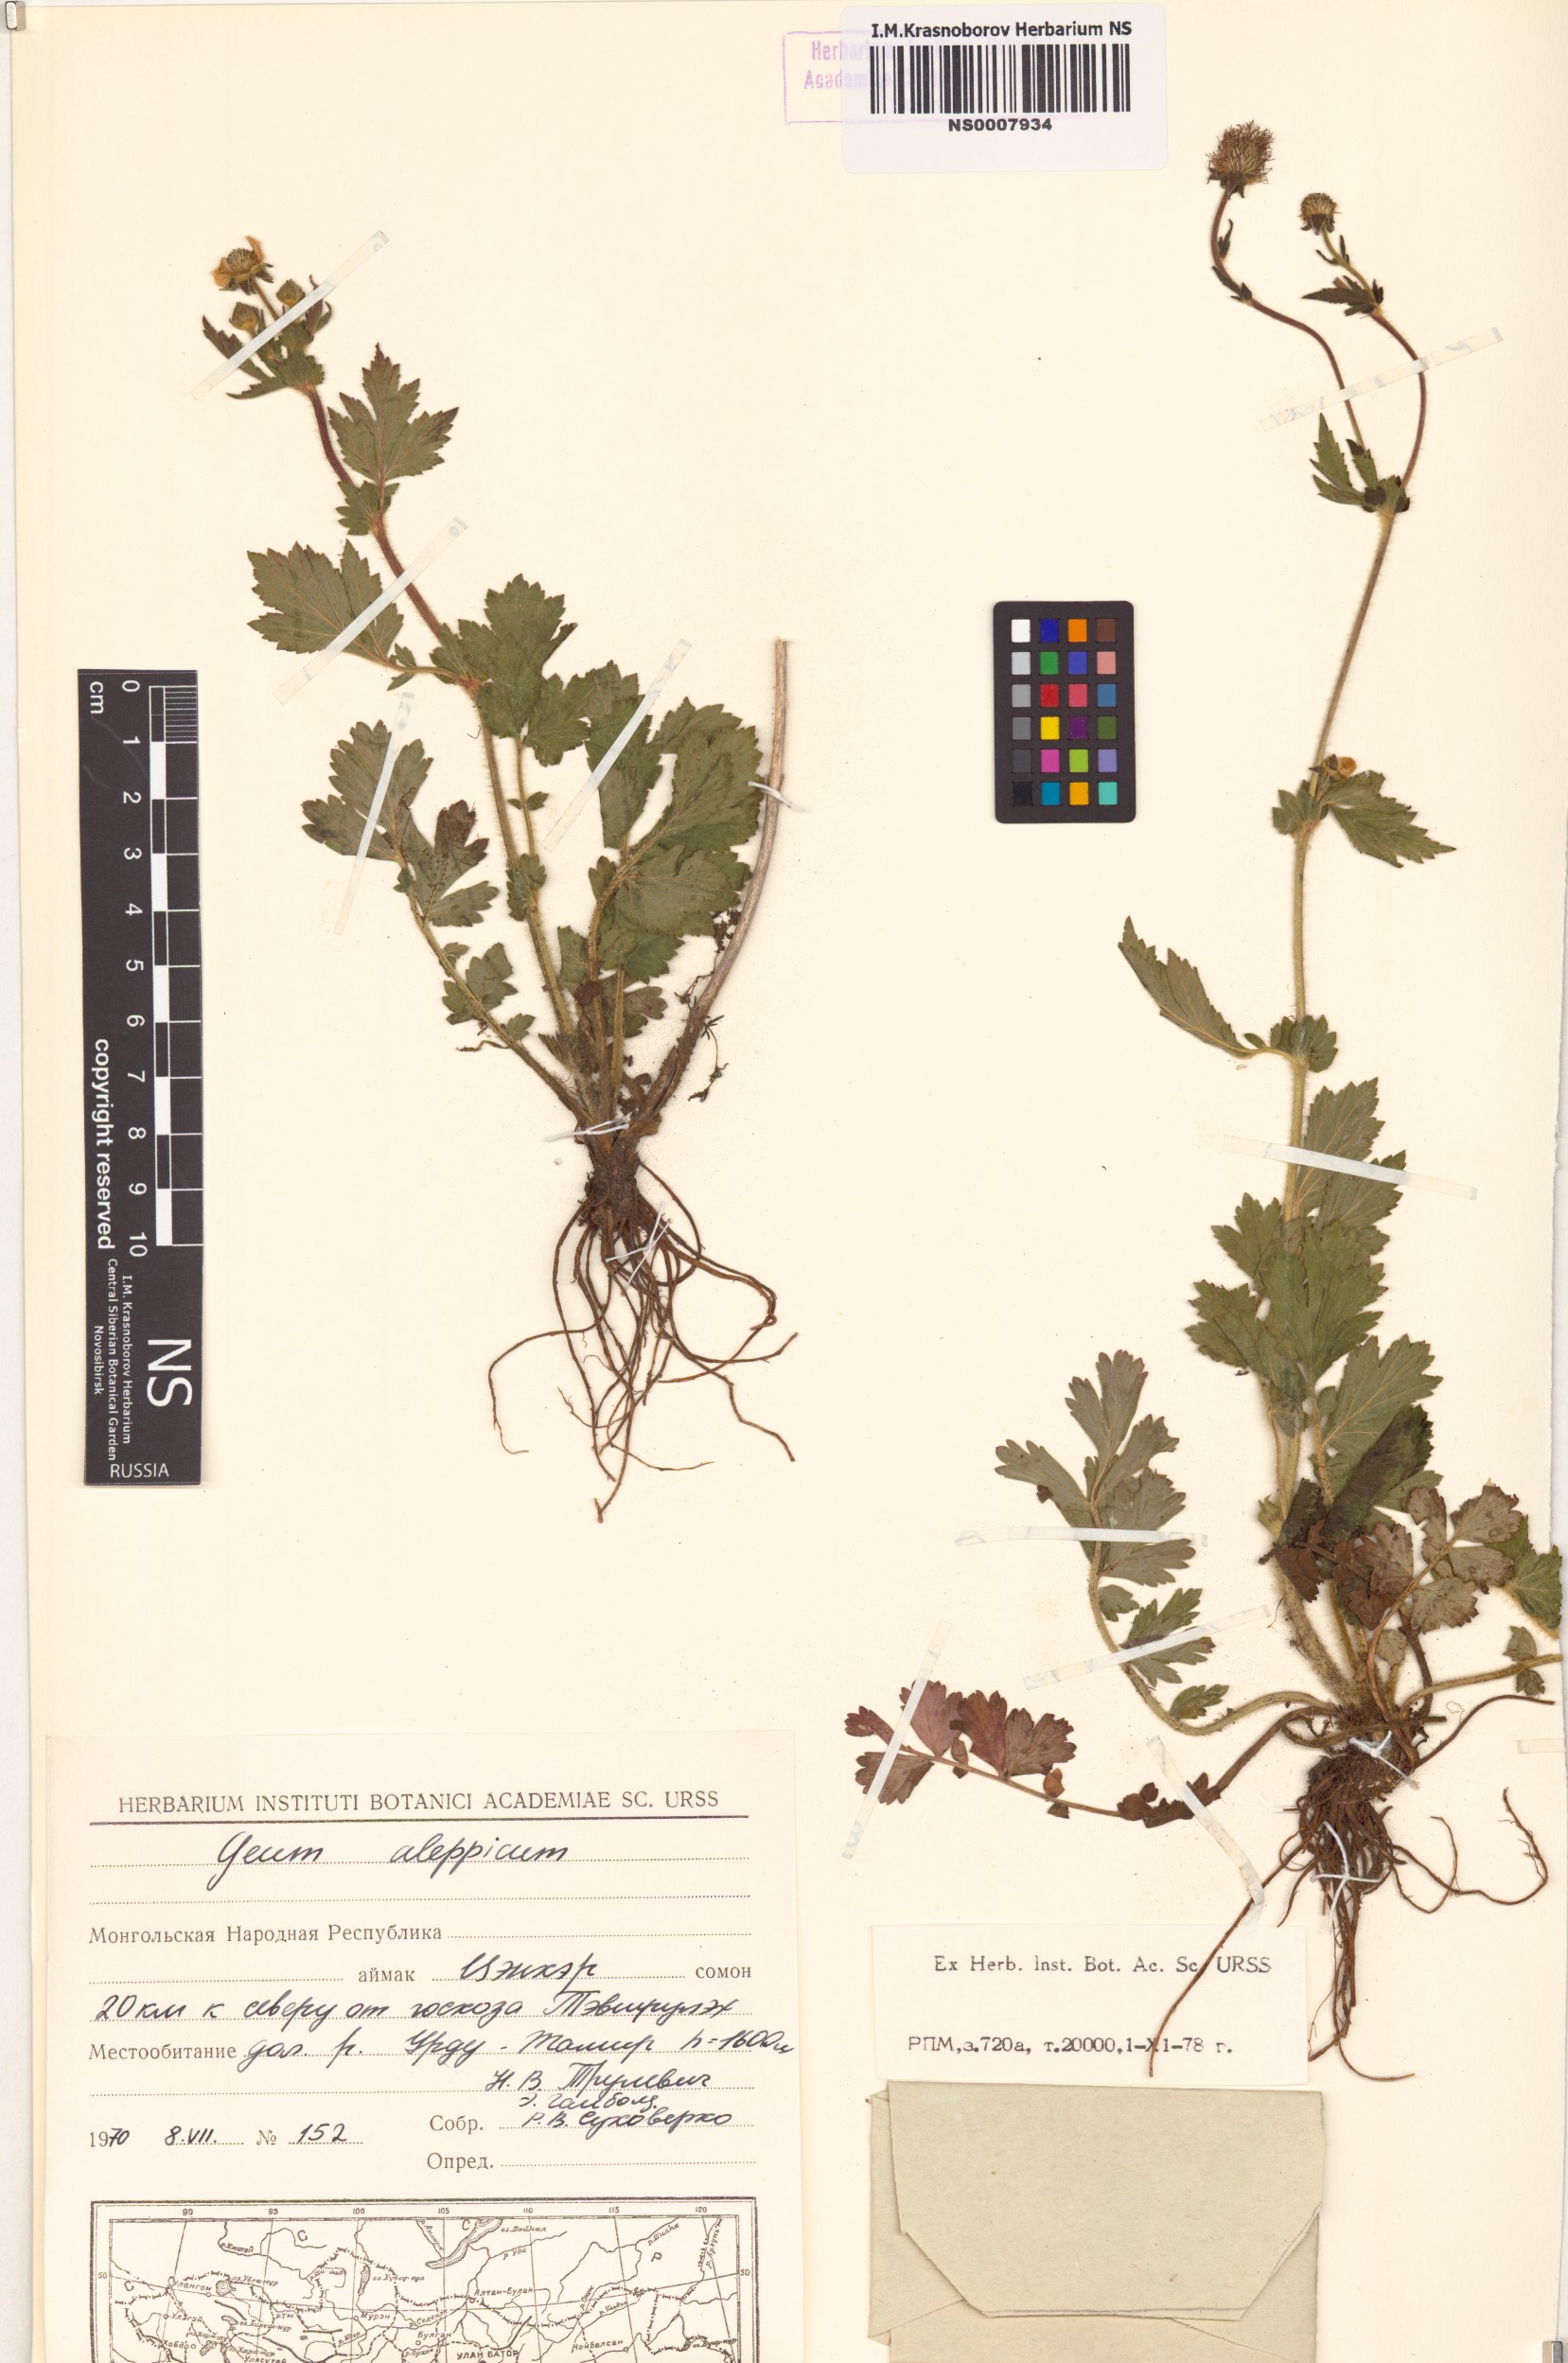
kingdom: Plantae
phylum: Tracheophyta
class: Magnoliopsida
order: Rosales
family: Rosaceae
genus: Geum
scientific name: Geum aleppicum
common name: Yellow avens
